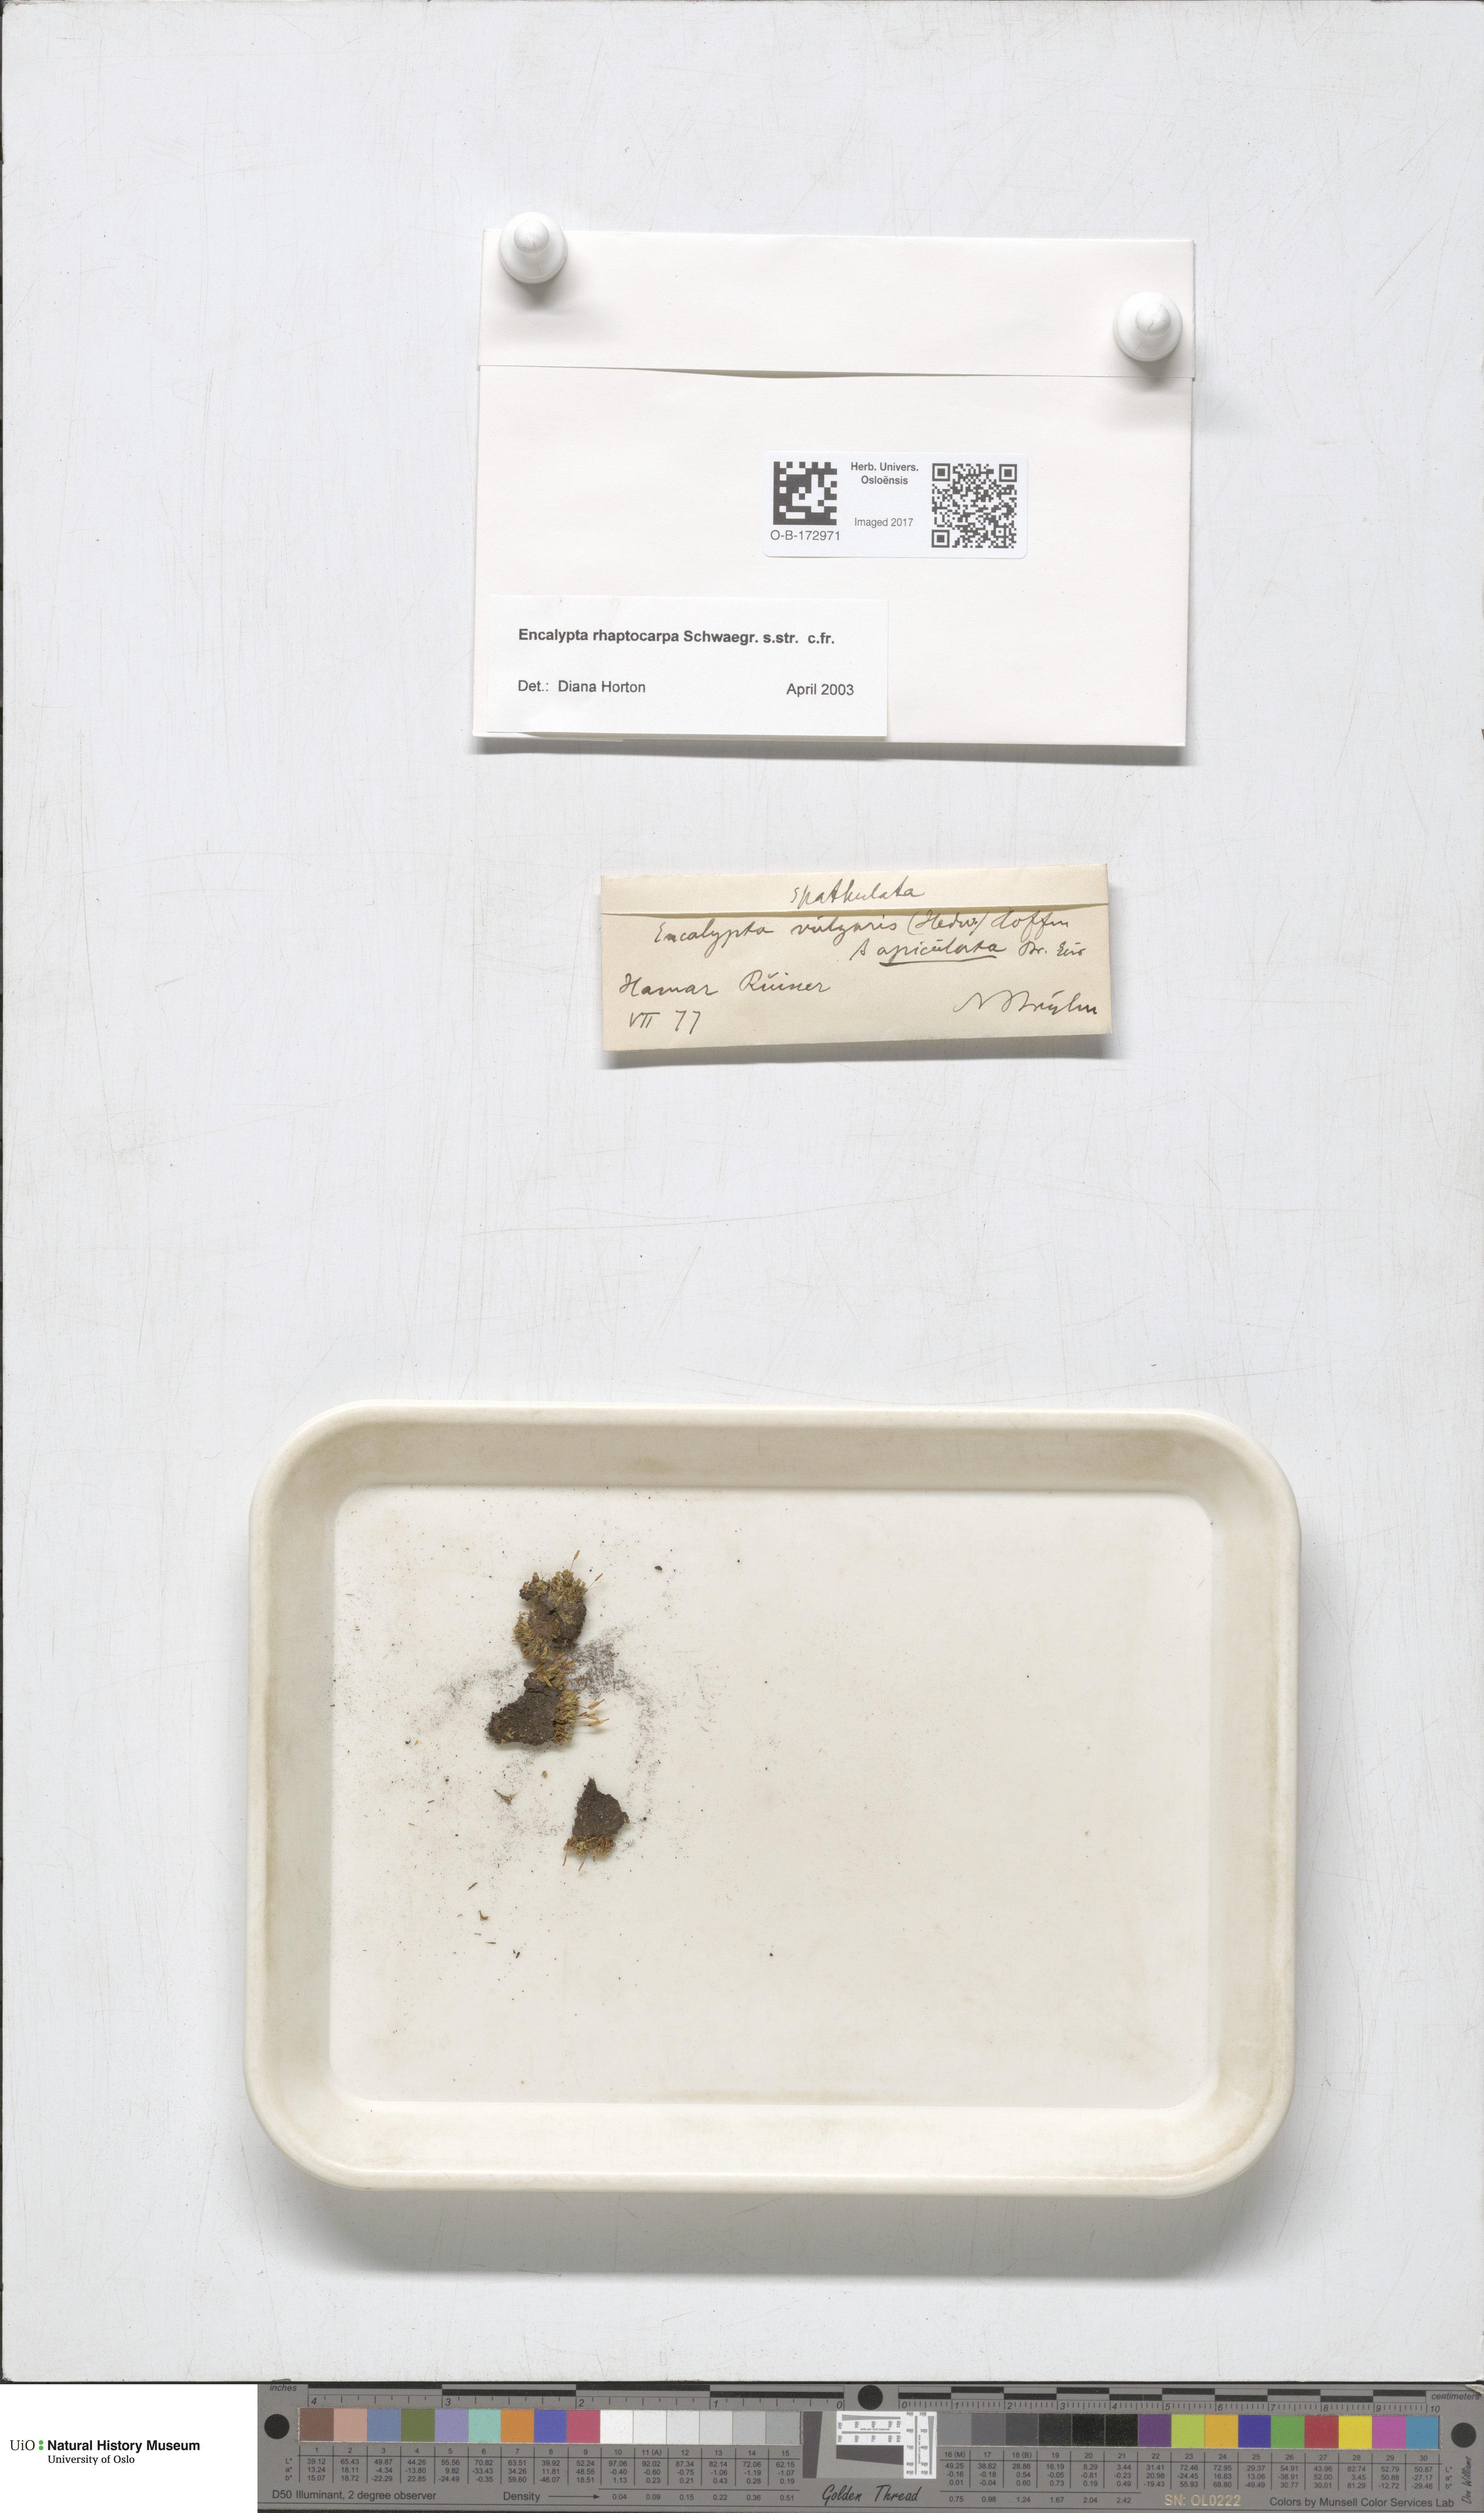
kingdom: Plantae
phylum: Bryophyta
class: Bryopsida
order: Encalyptales
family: Encalyptaceae
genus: Encalypta
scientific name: Encalypta rhaptocarpa
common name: Ribbed extinguisher moss
